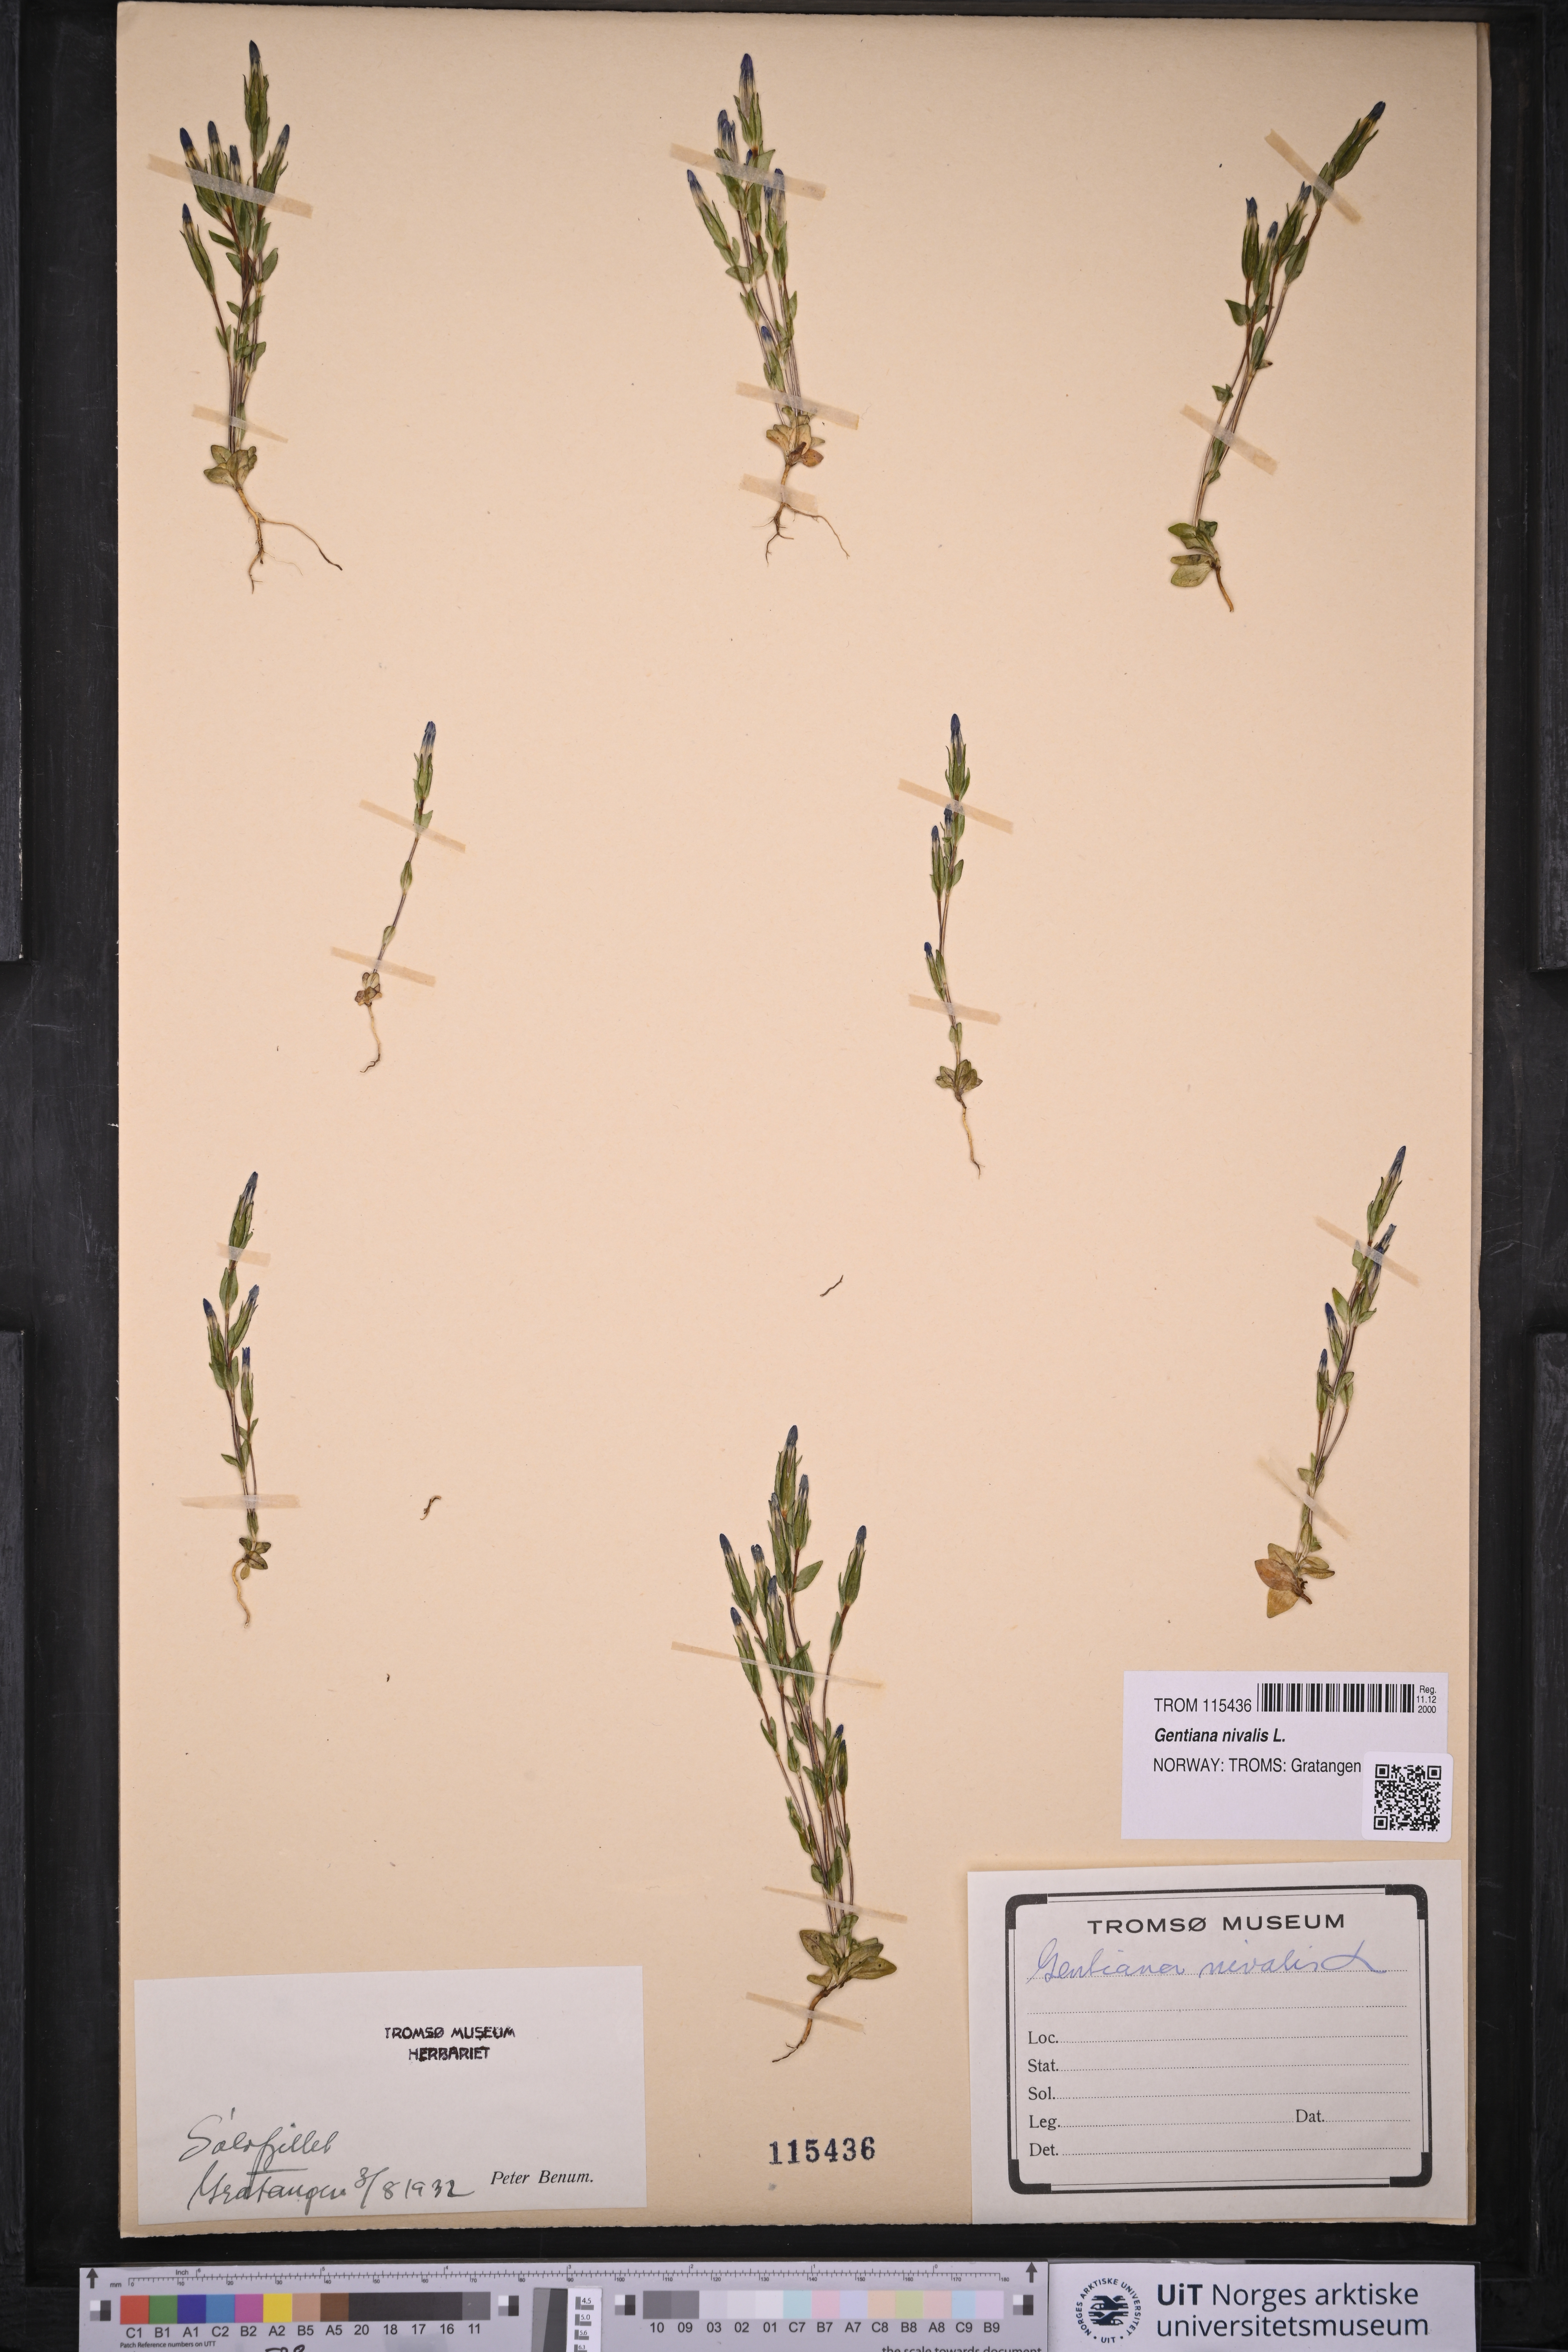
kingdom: Plantae
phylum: Tracheophyta
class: Magnoliopsida
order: Gentianales
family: Gentianaceae
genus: Gentiana
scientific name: Gentiana nivalis
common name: Alpine gentian
